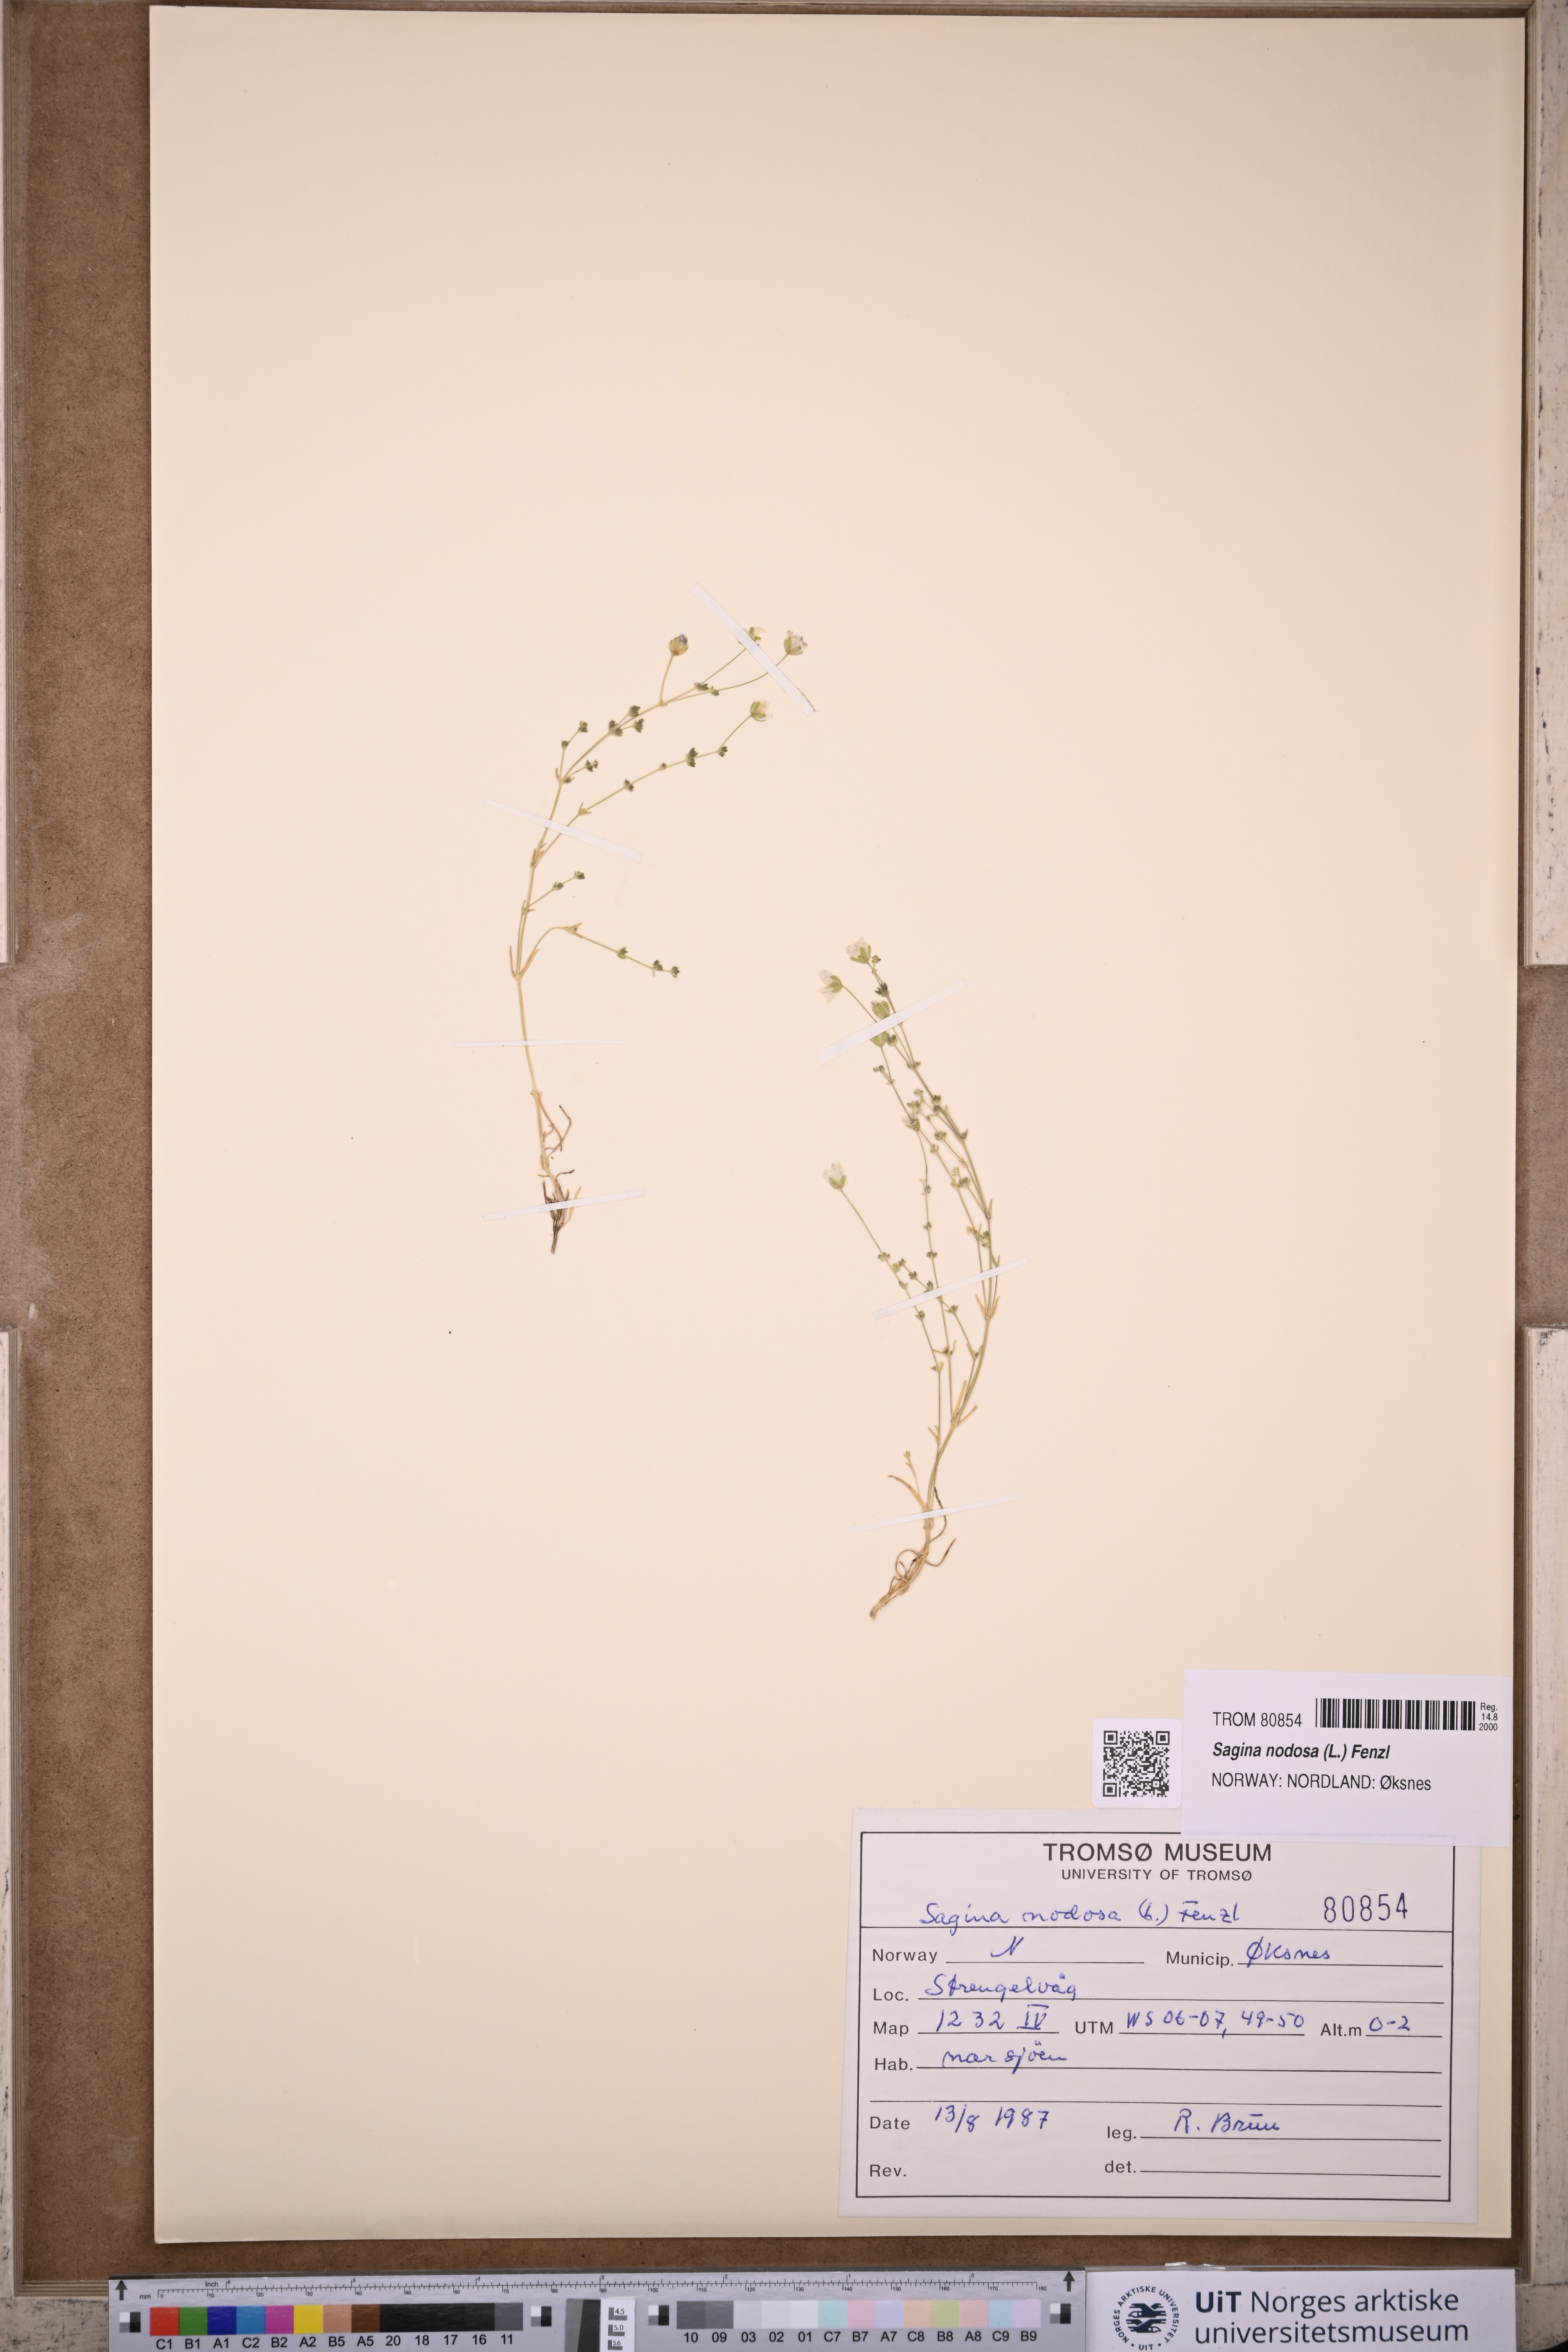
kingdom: Plantae
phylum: Tracheophyta
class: Magnoliopsida
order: Caryophyllales
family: Caryophyllaceae
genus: Sagina
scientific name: Sagina nodosa
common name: Knotted pearlwort
